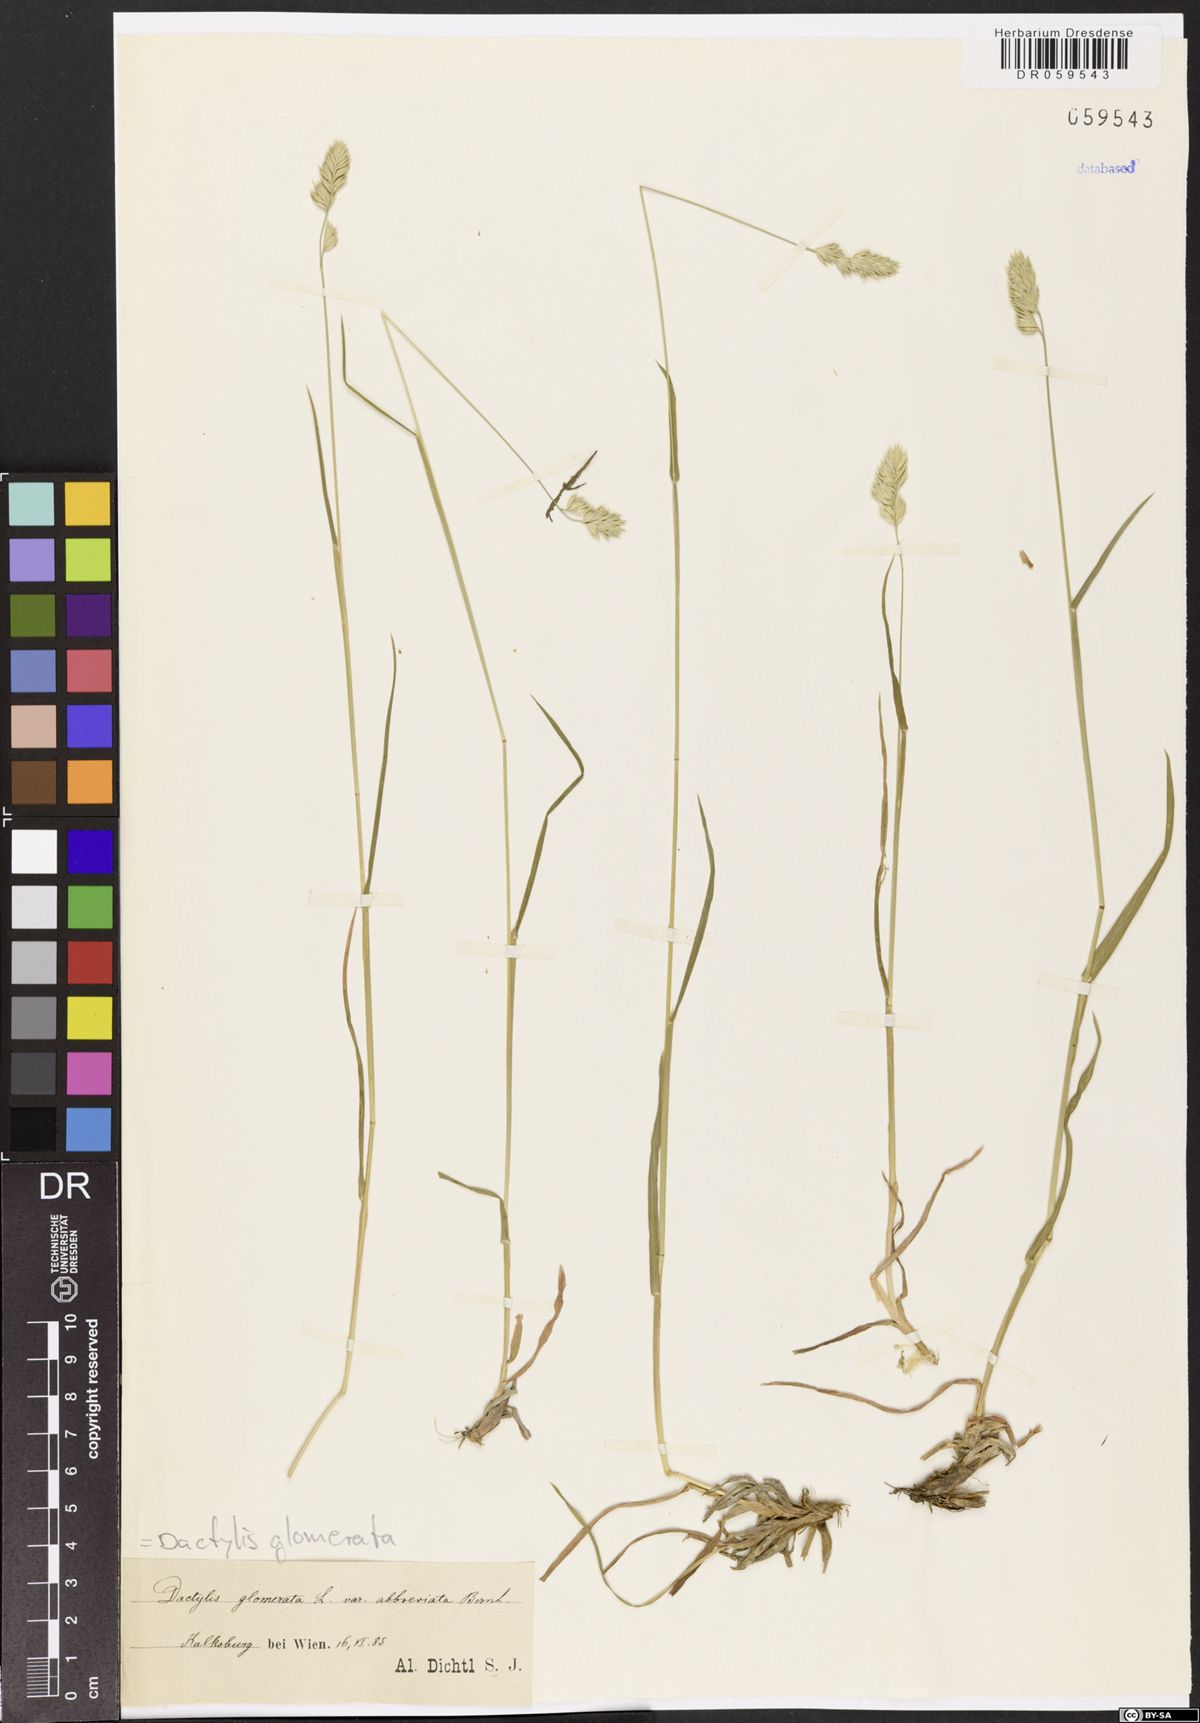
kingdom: Plantae
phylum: Tracheophyta
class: Liliopsida
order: Poales
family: Poaceae
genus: Dactylis
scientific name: Dactylis glomerata
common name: Orchardgrass
